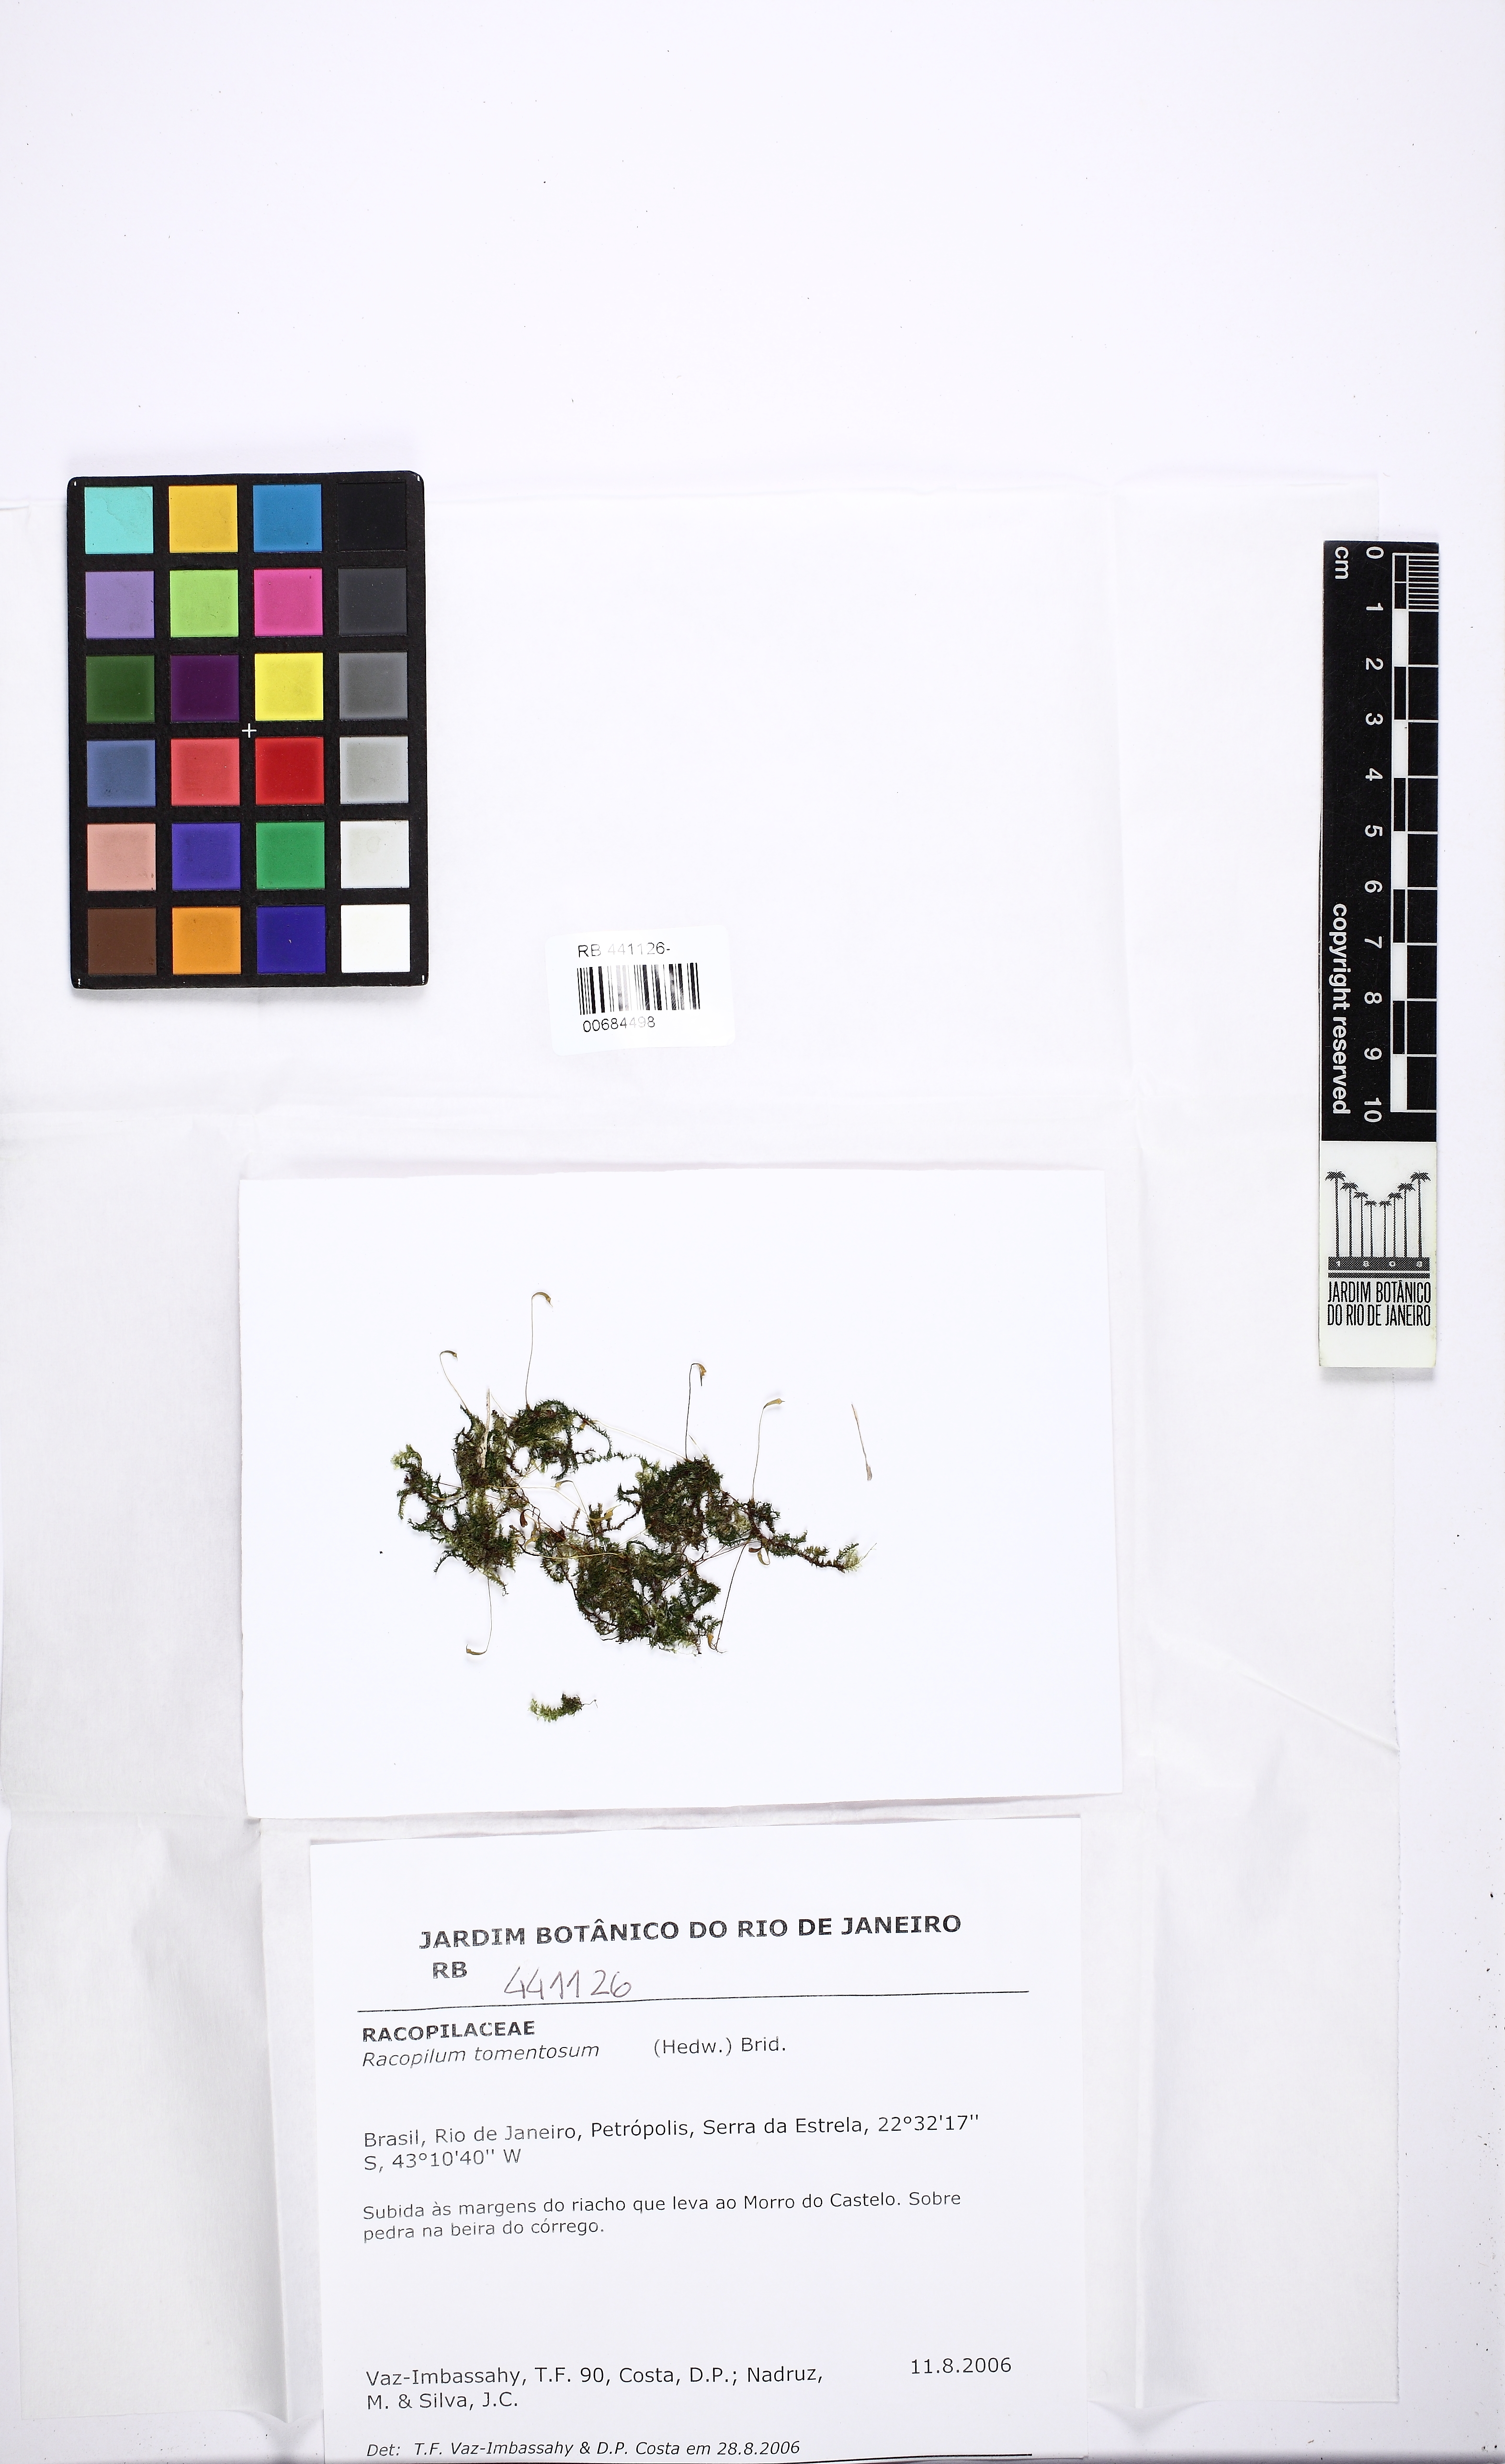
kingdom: Plantae
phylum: Bryophyta
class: Bryopsida
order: Hypnodendrales
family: Racopilaceae
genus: Racopilum
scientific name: Racopilum tomentosum
